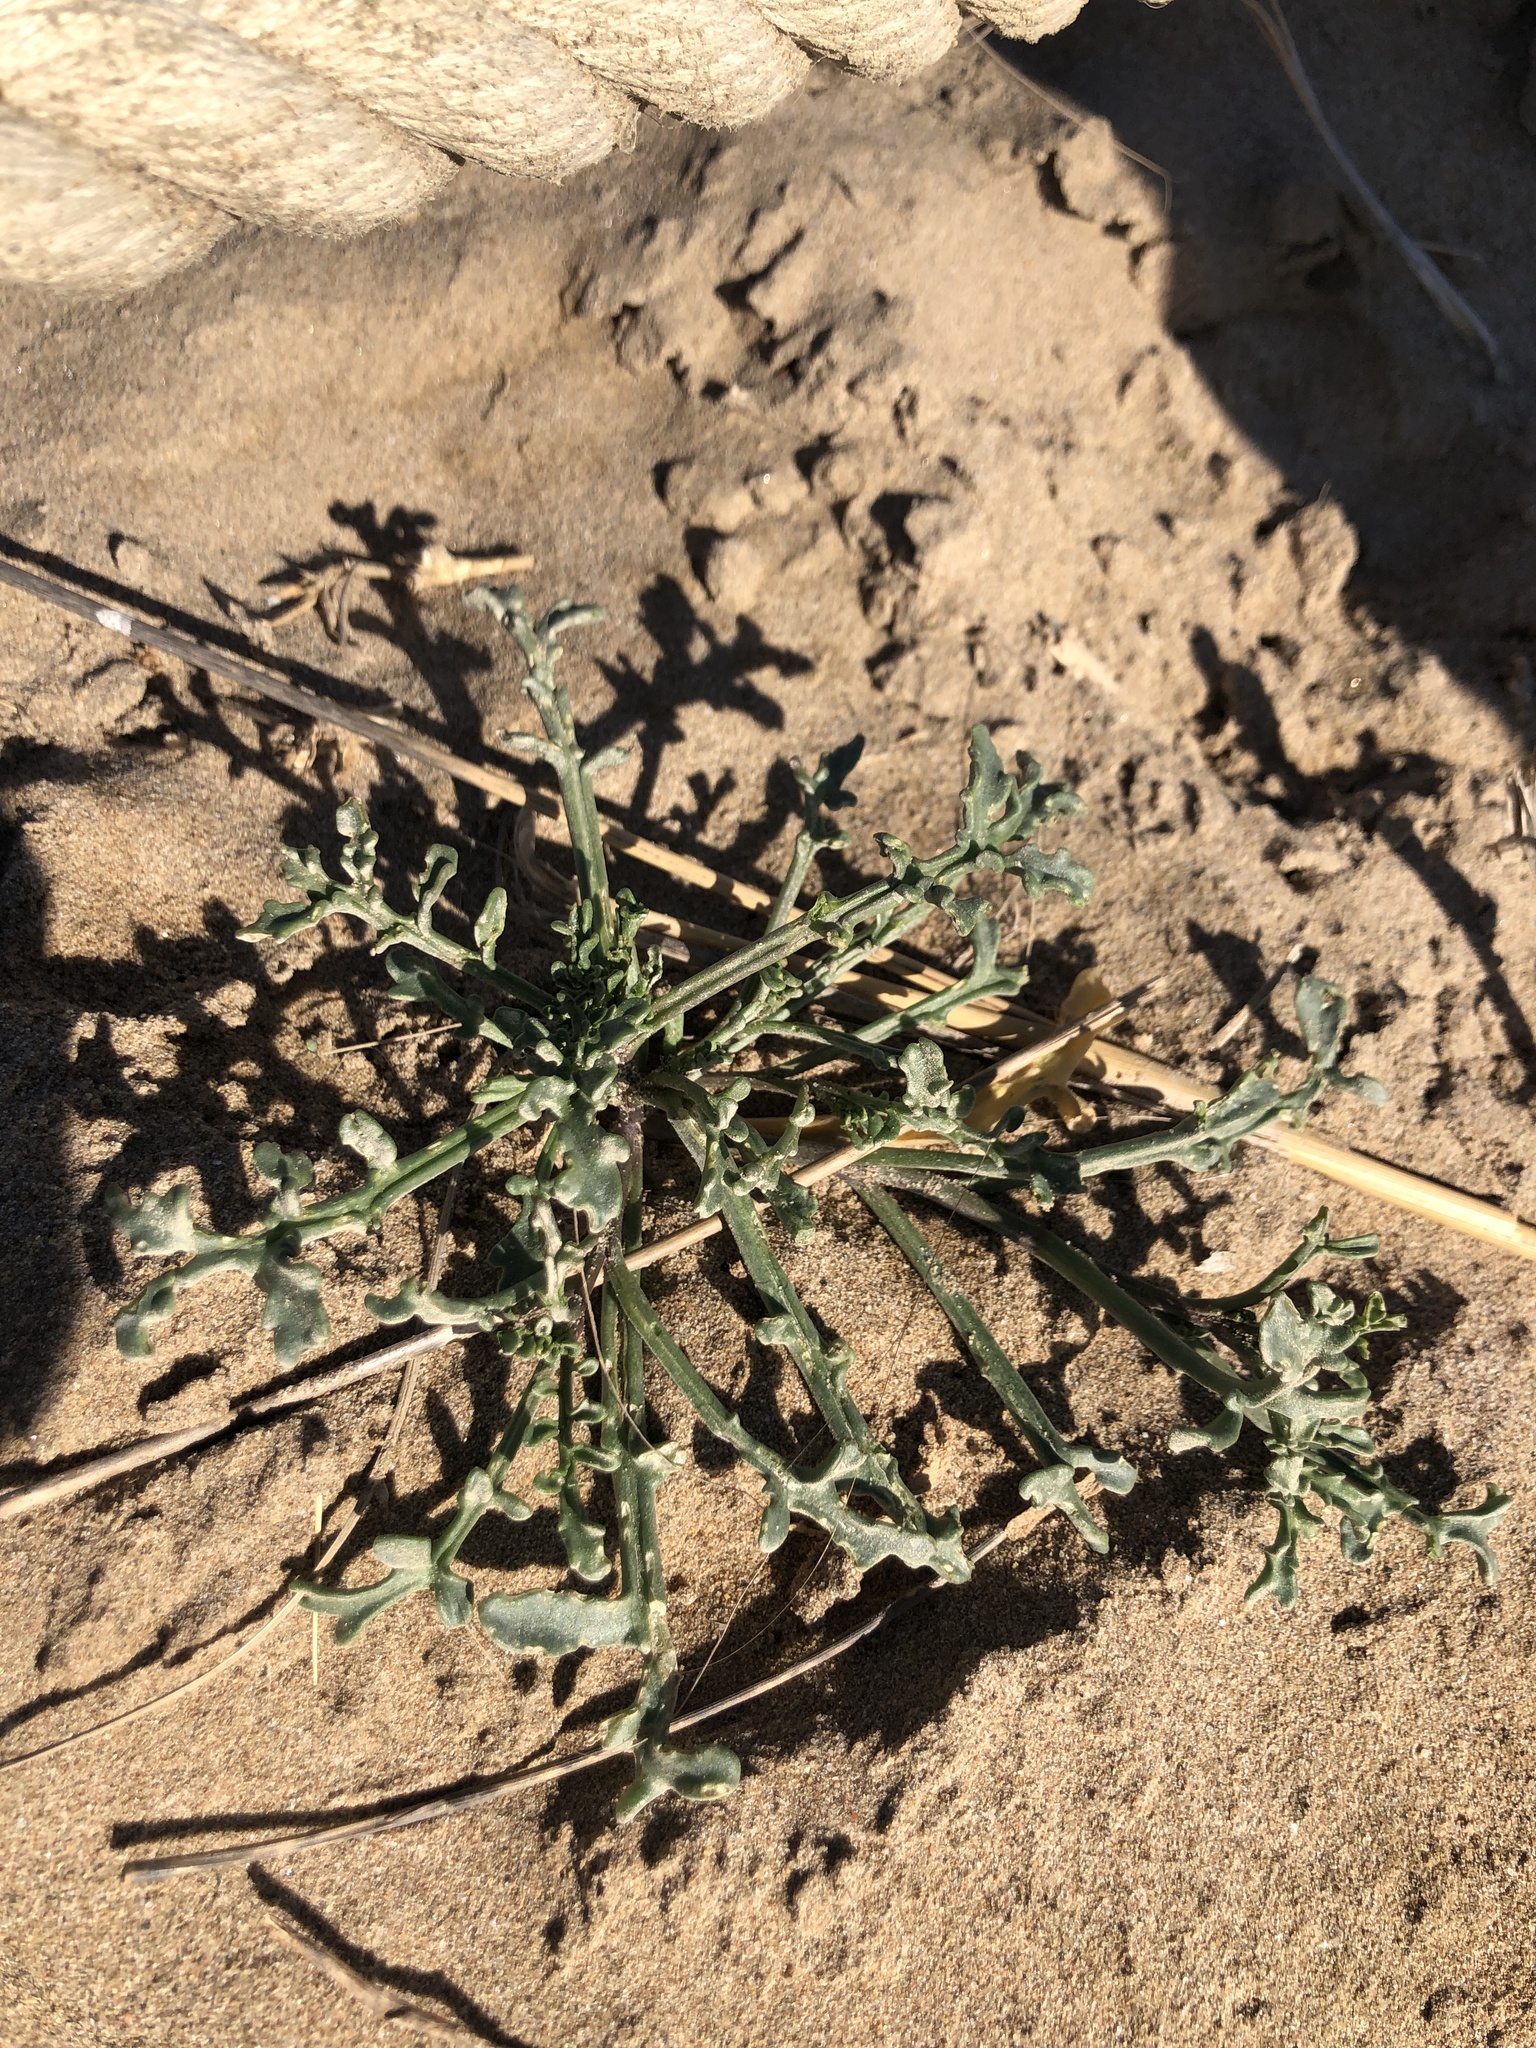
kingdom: Plantae
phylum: Tracheophyta
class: Magnoliopsida
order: Brassicales
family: Brassicaceae
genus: Cakile
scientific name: Cakile maritima
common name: Sea rocket
